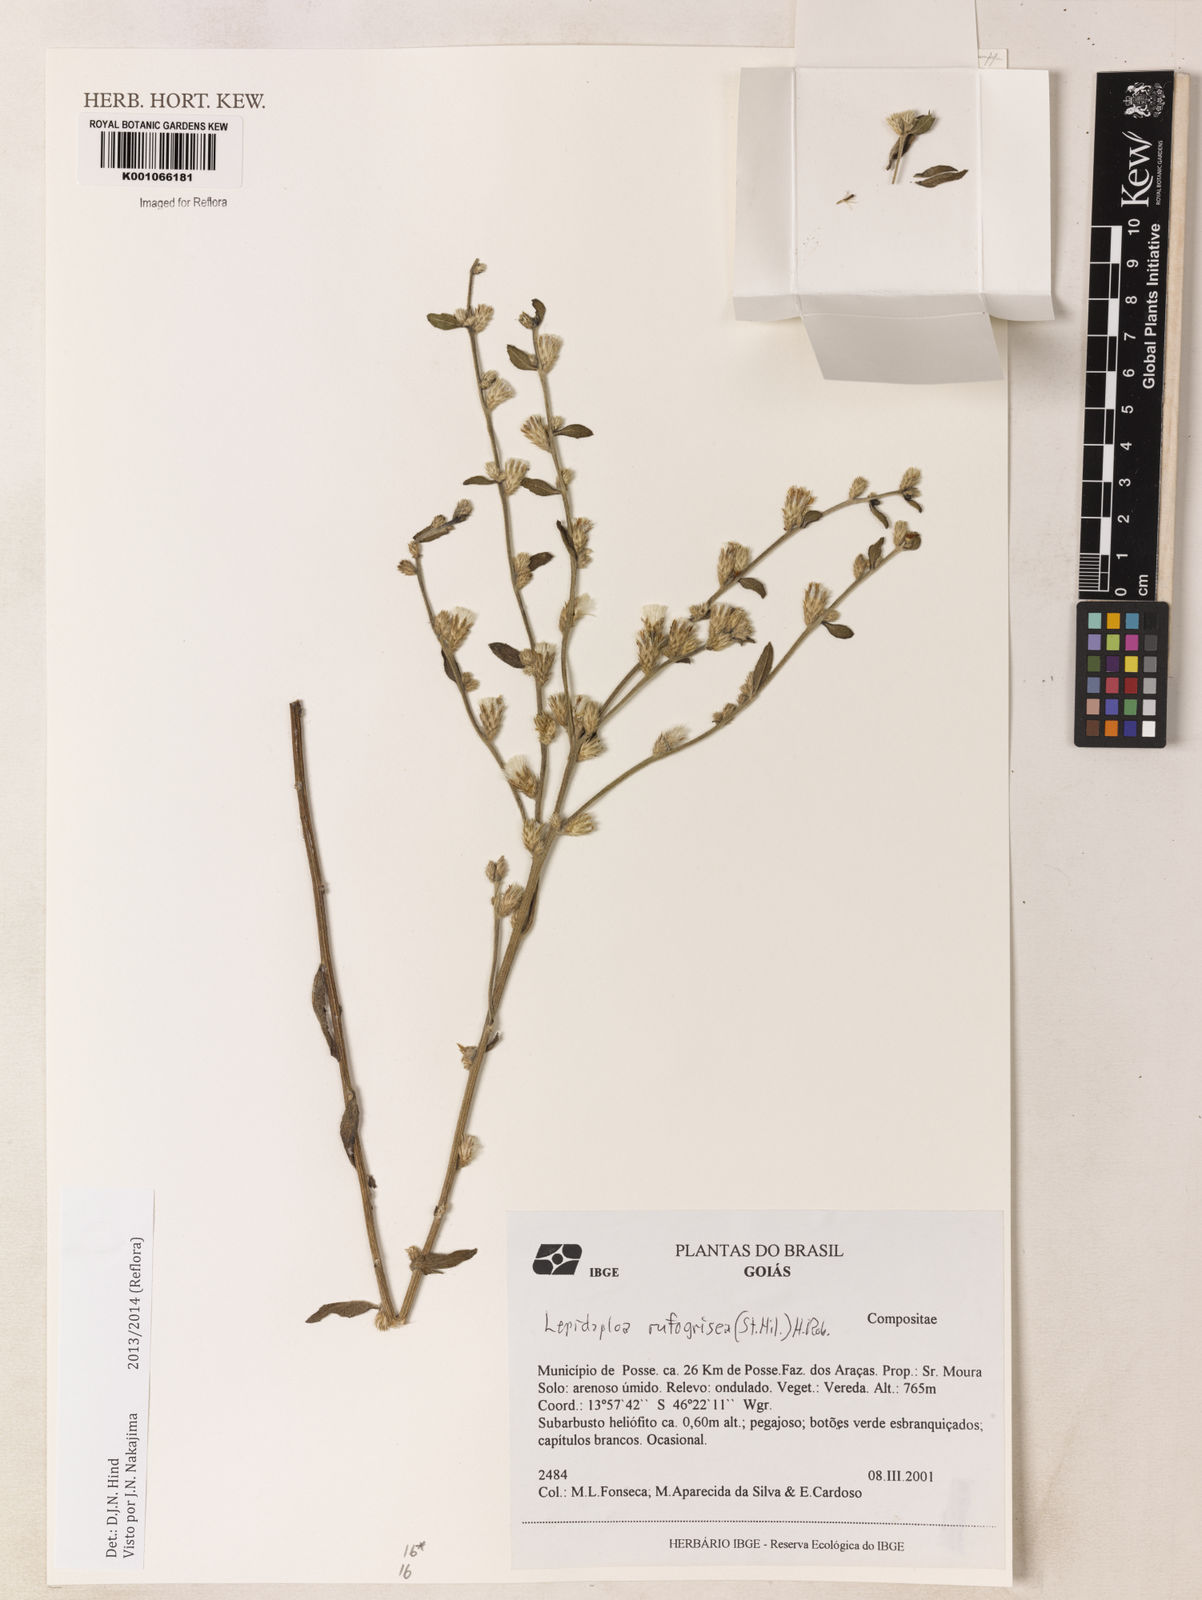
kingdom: Plantae
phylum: Tracheophyta
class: Magnoliopsida
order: Asterales
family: Asteraceae
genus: Lepidaploa
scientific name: Lepidaploa rufogrisea
